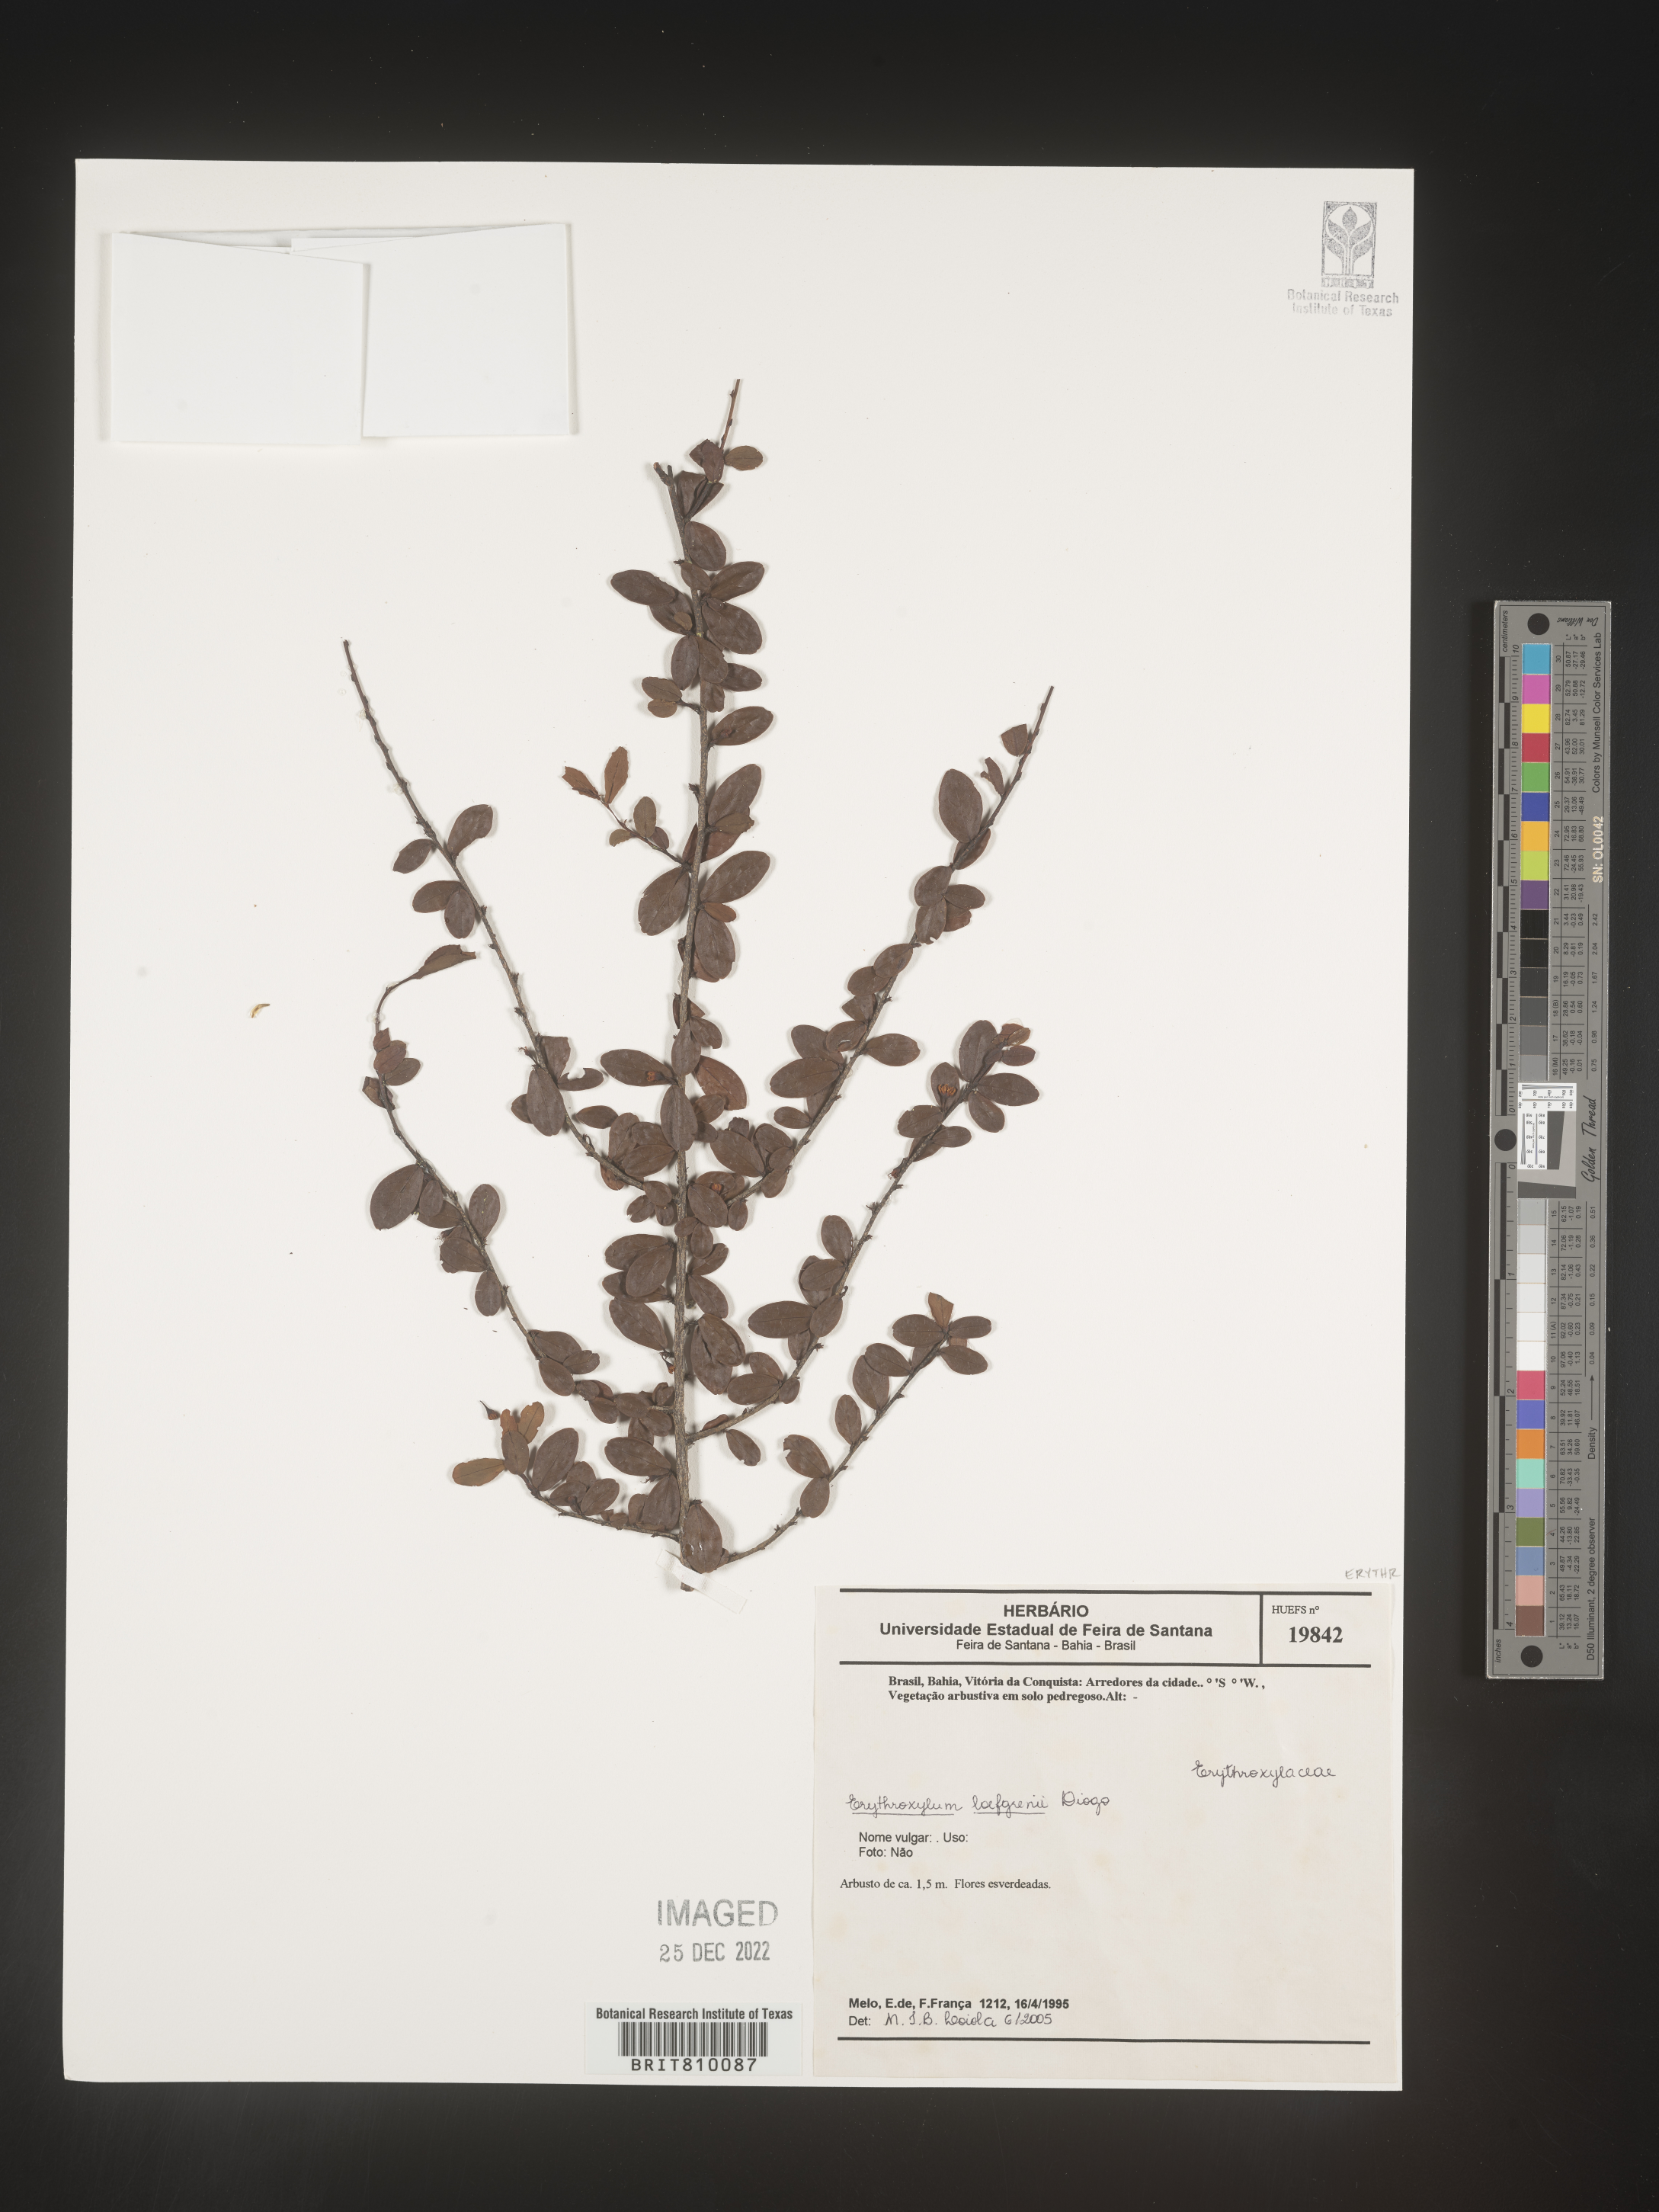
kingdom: Plantae
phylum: Tracheophyta
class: Magnoliopsida
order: Malpighiales
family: Erythroxylaceae
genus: Erythroxylum
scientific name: Erythroxylum
